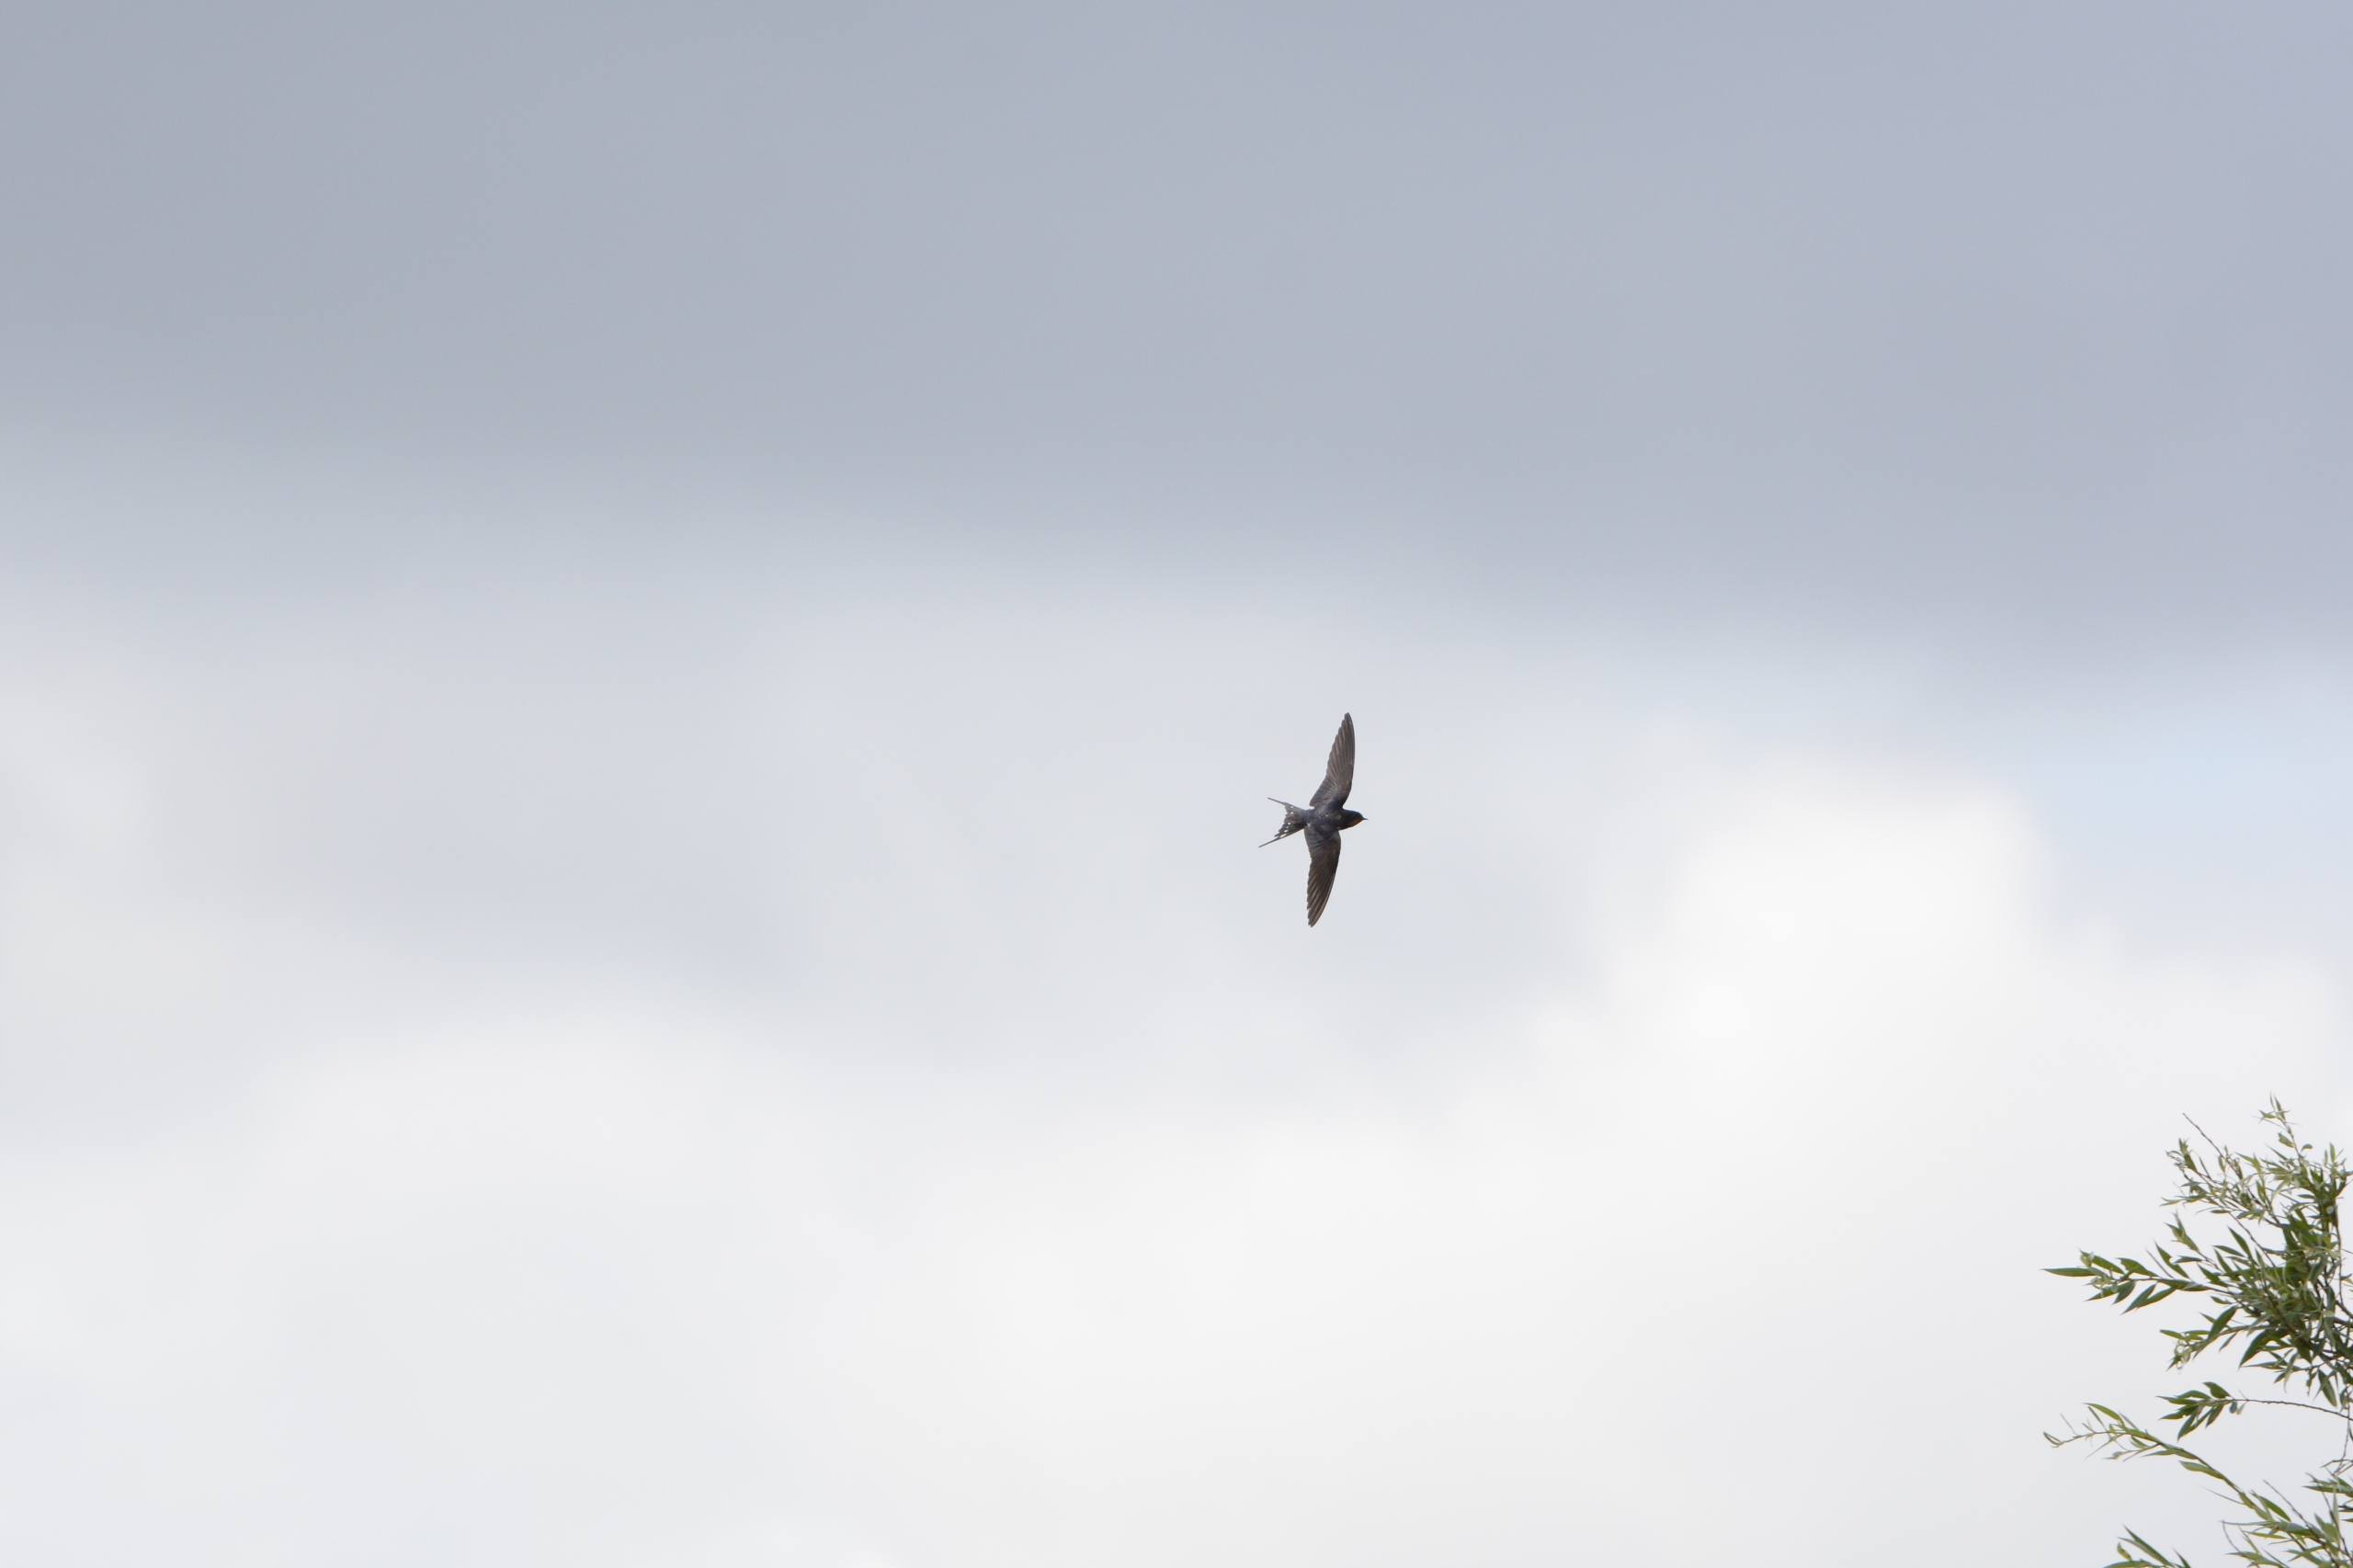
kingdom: Animalia
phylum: Chordata
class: Aves
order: Passeriformes
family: Hirundinidae
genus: Hirundo
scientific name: Hirundo rustica
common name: Landsvale
